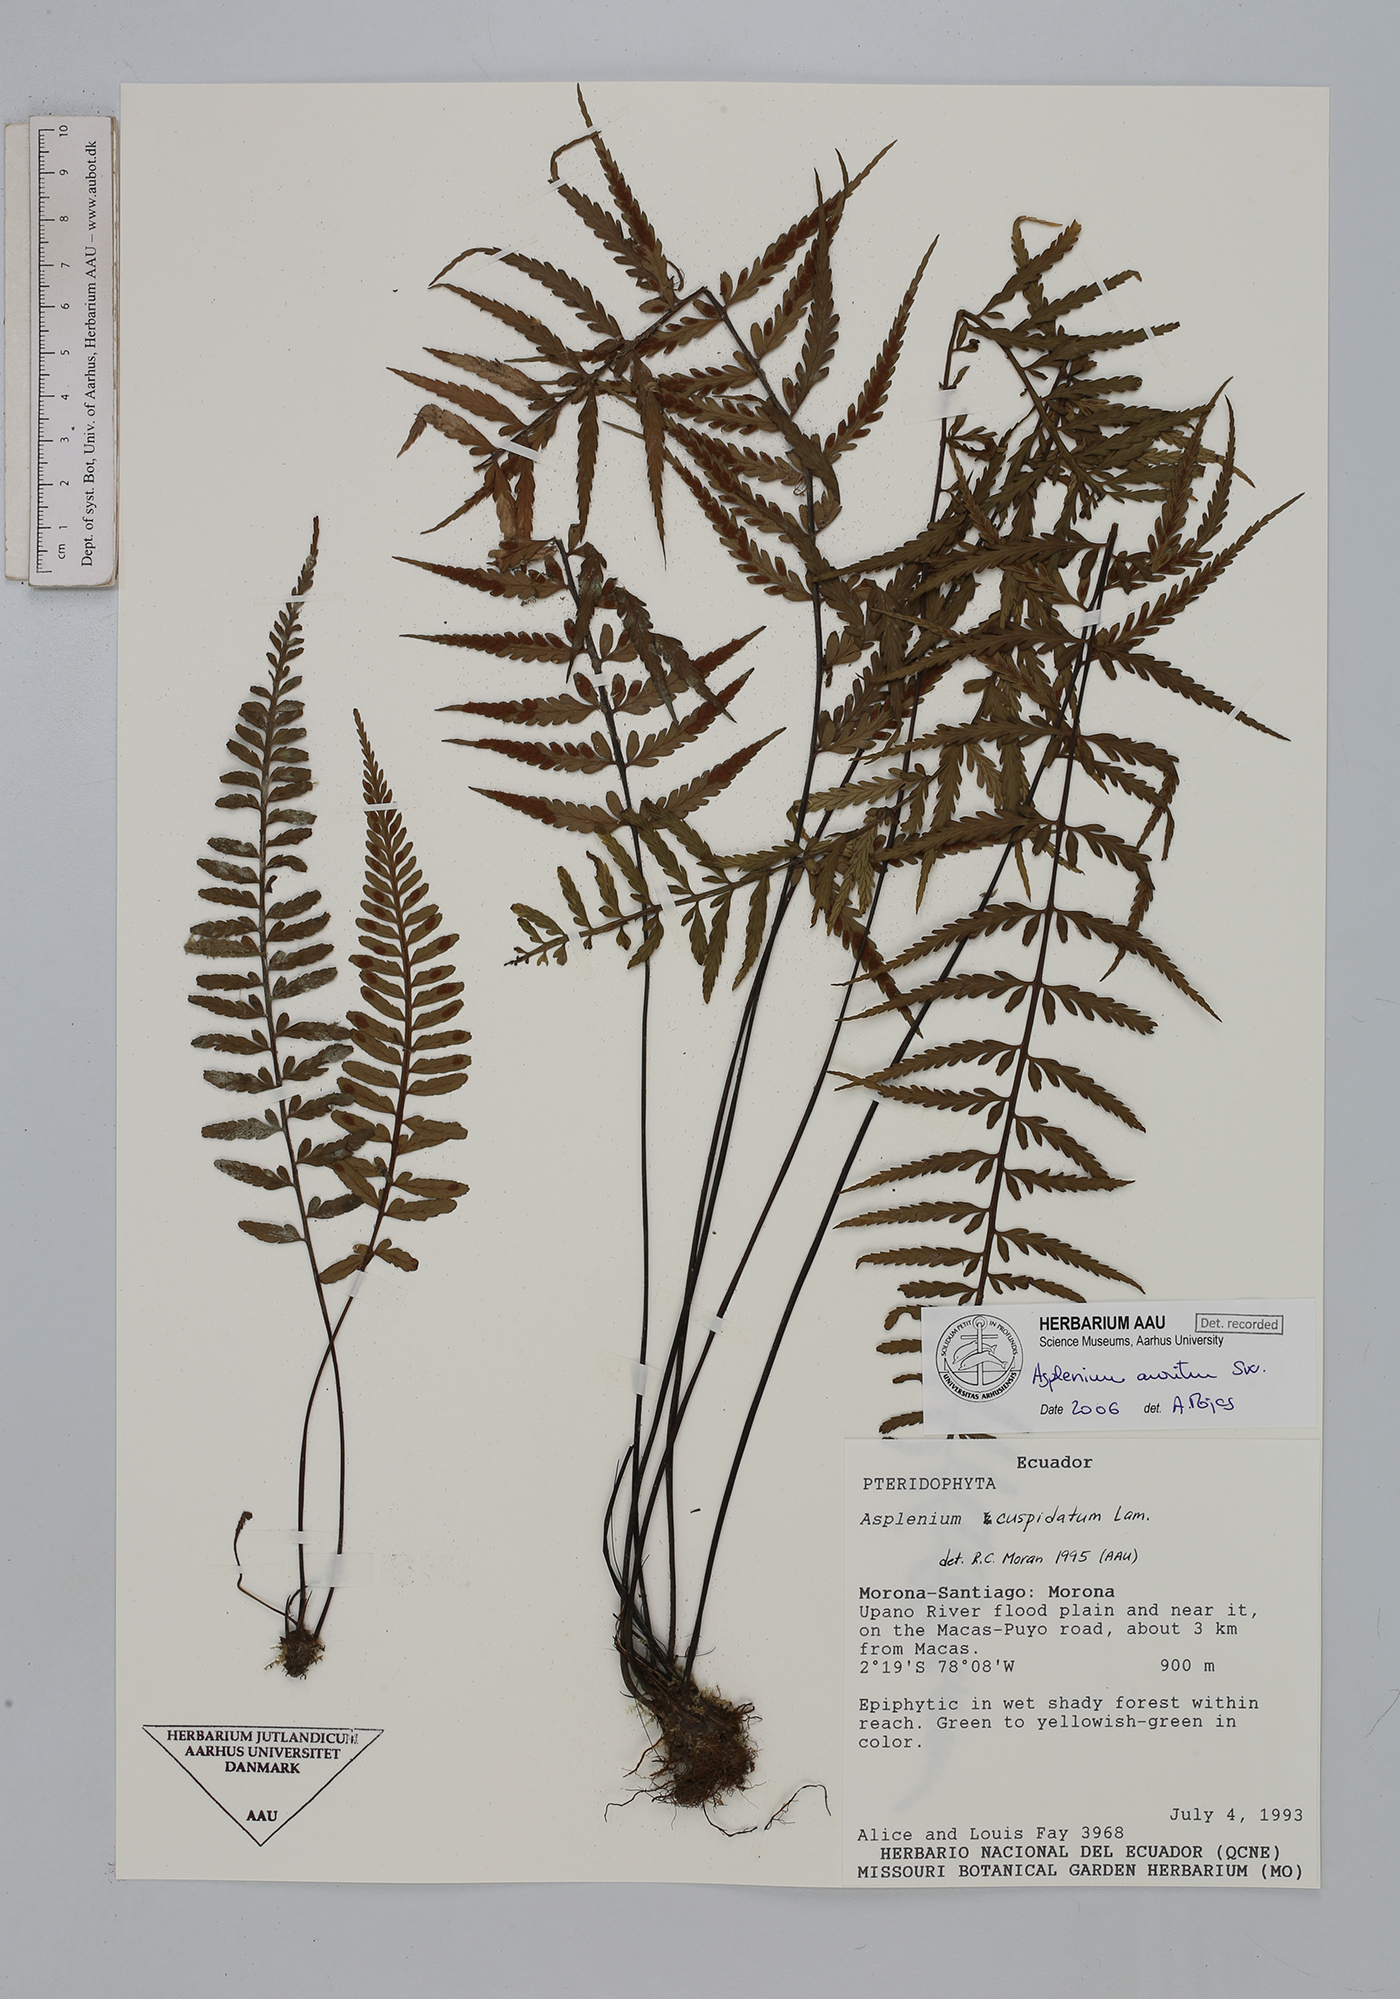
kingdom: Plantae
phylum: Tracheophyta
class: Polypodiopsida
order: Polypodiales
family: Aspleniaceae
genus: Asplenium
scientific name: Asplenium auritum
